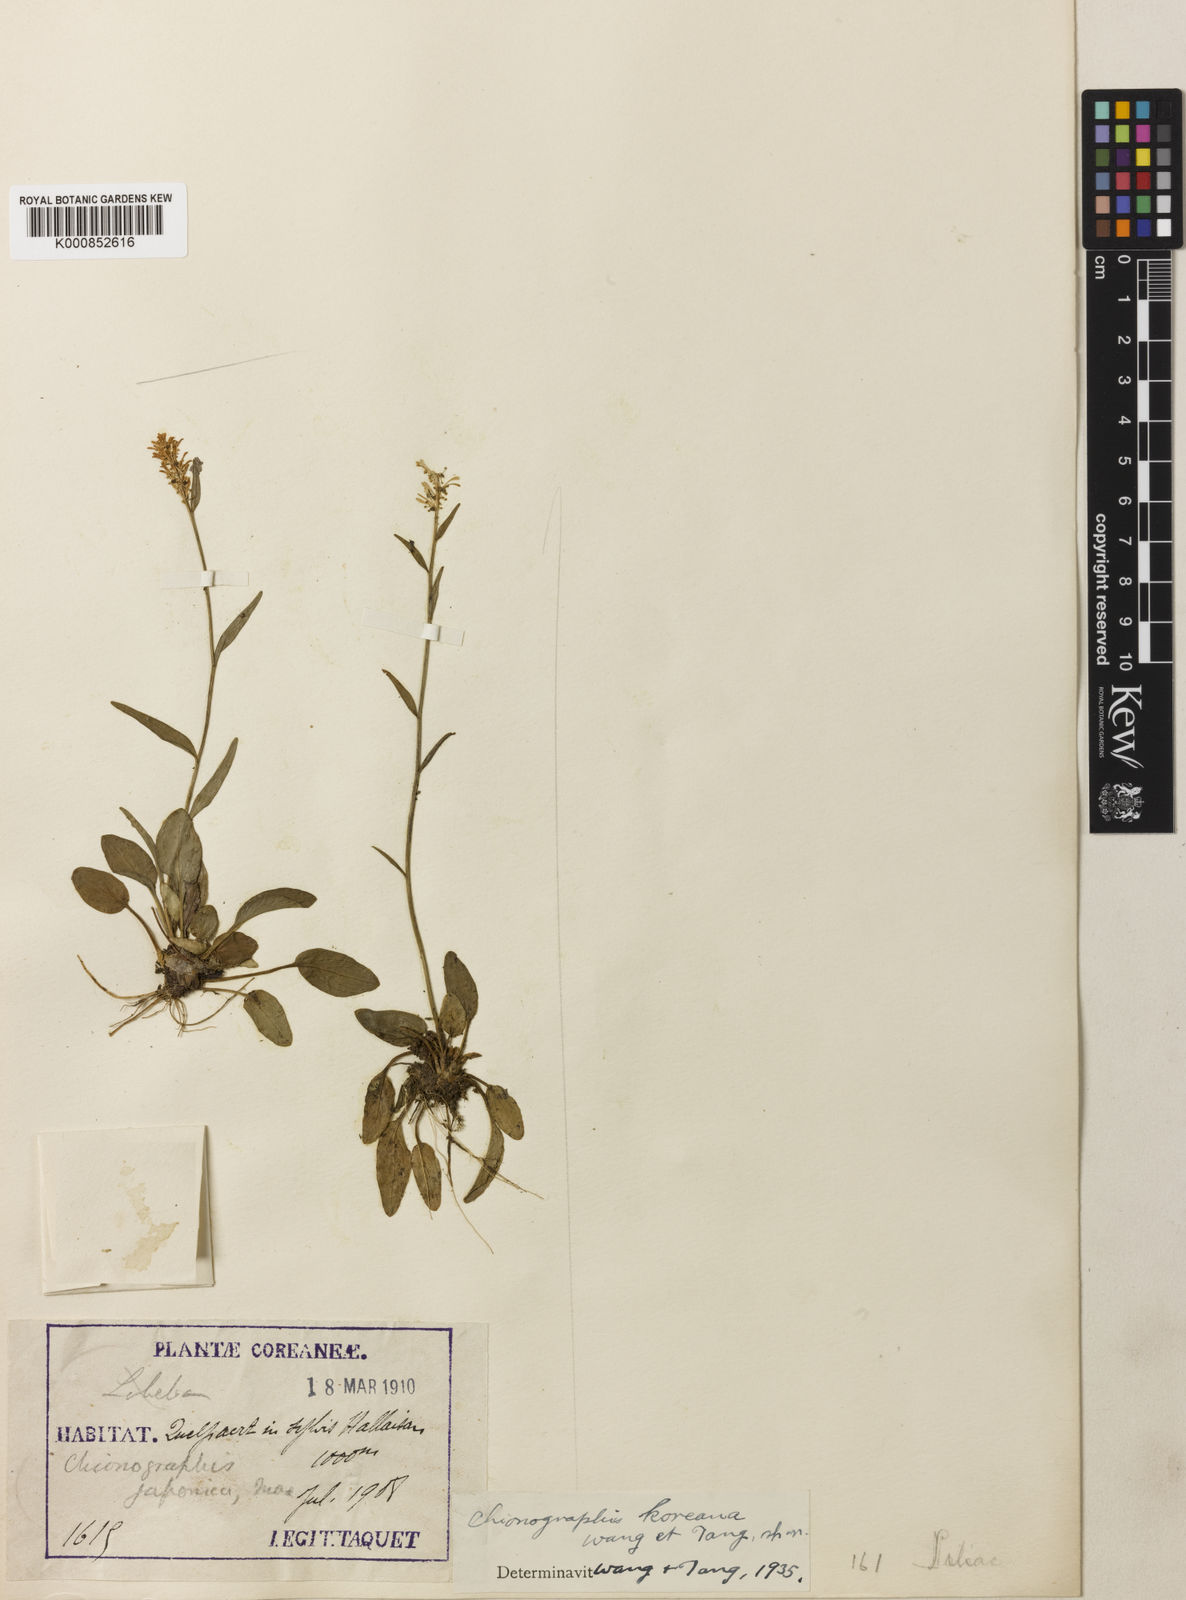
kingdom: Plantae
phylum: Tracheophyta
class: Liliopsida
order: Liliales
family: Melanthiaceae
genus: Chamaelirium
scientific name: Chamaelirium japonicum
